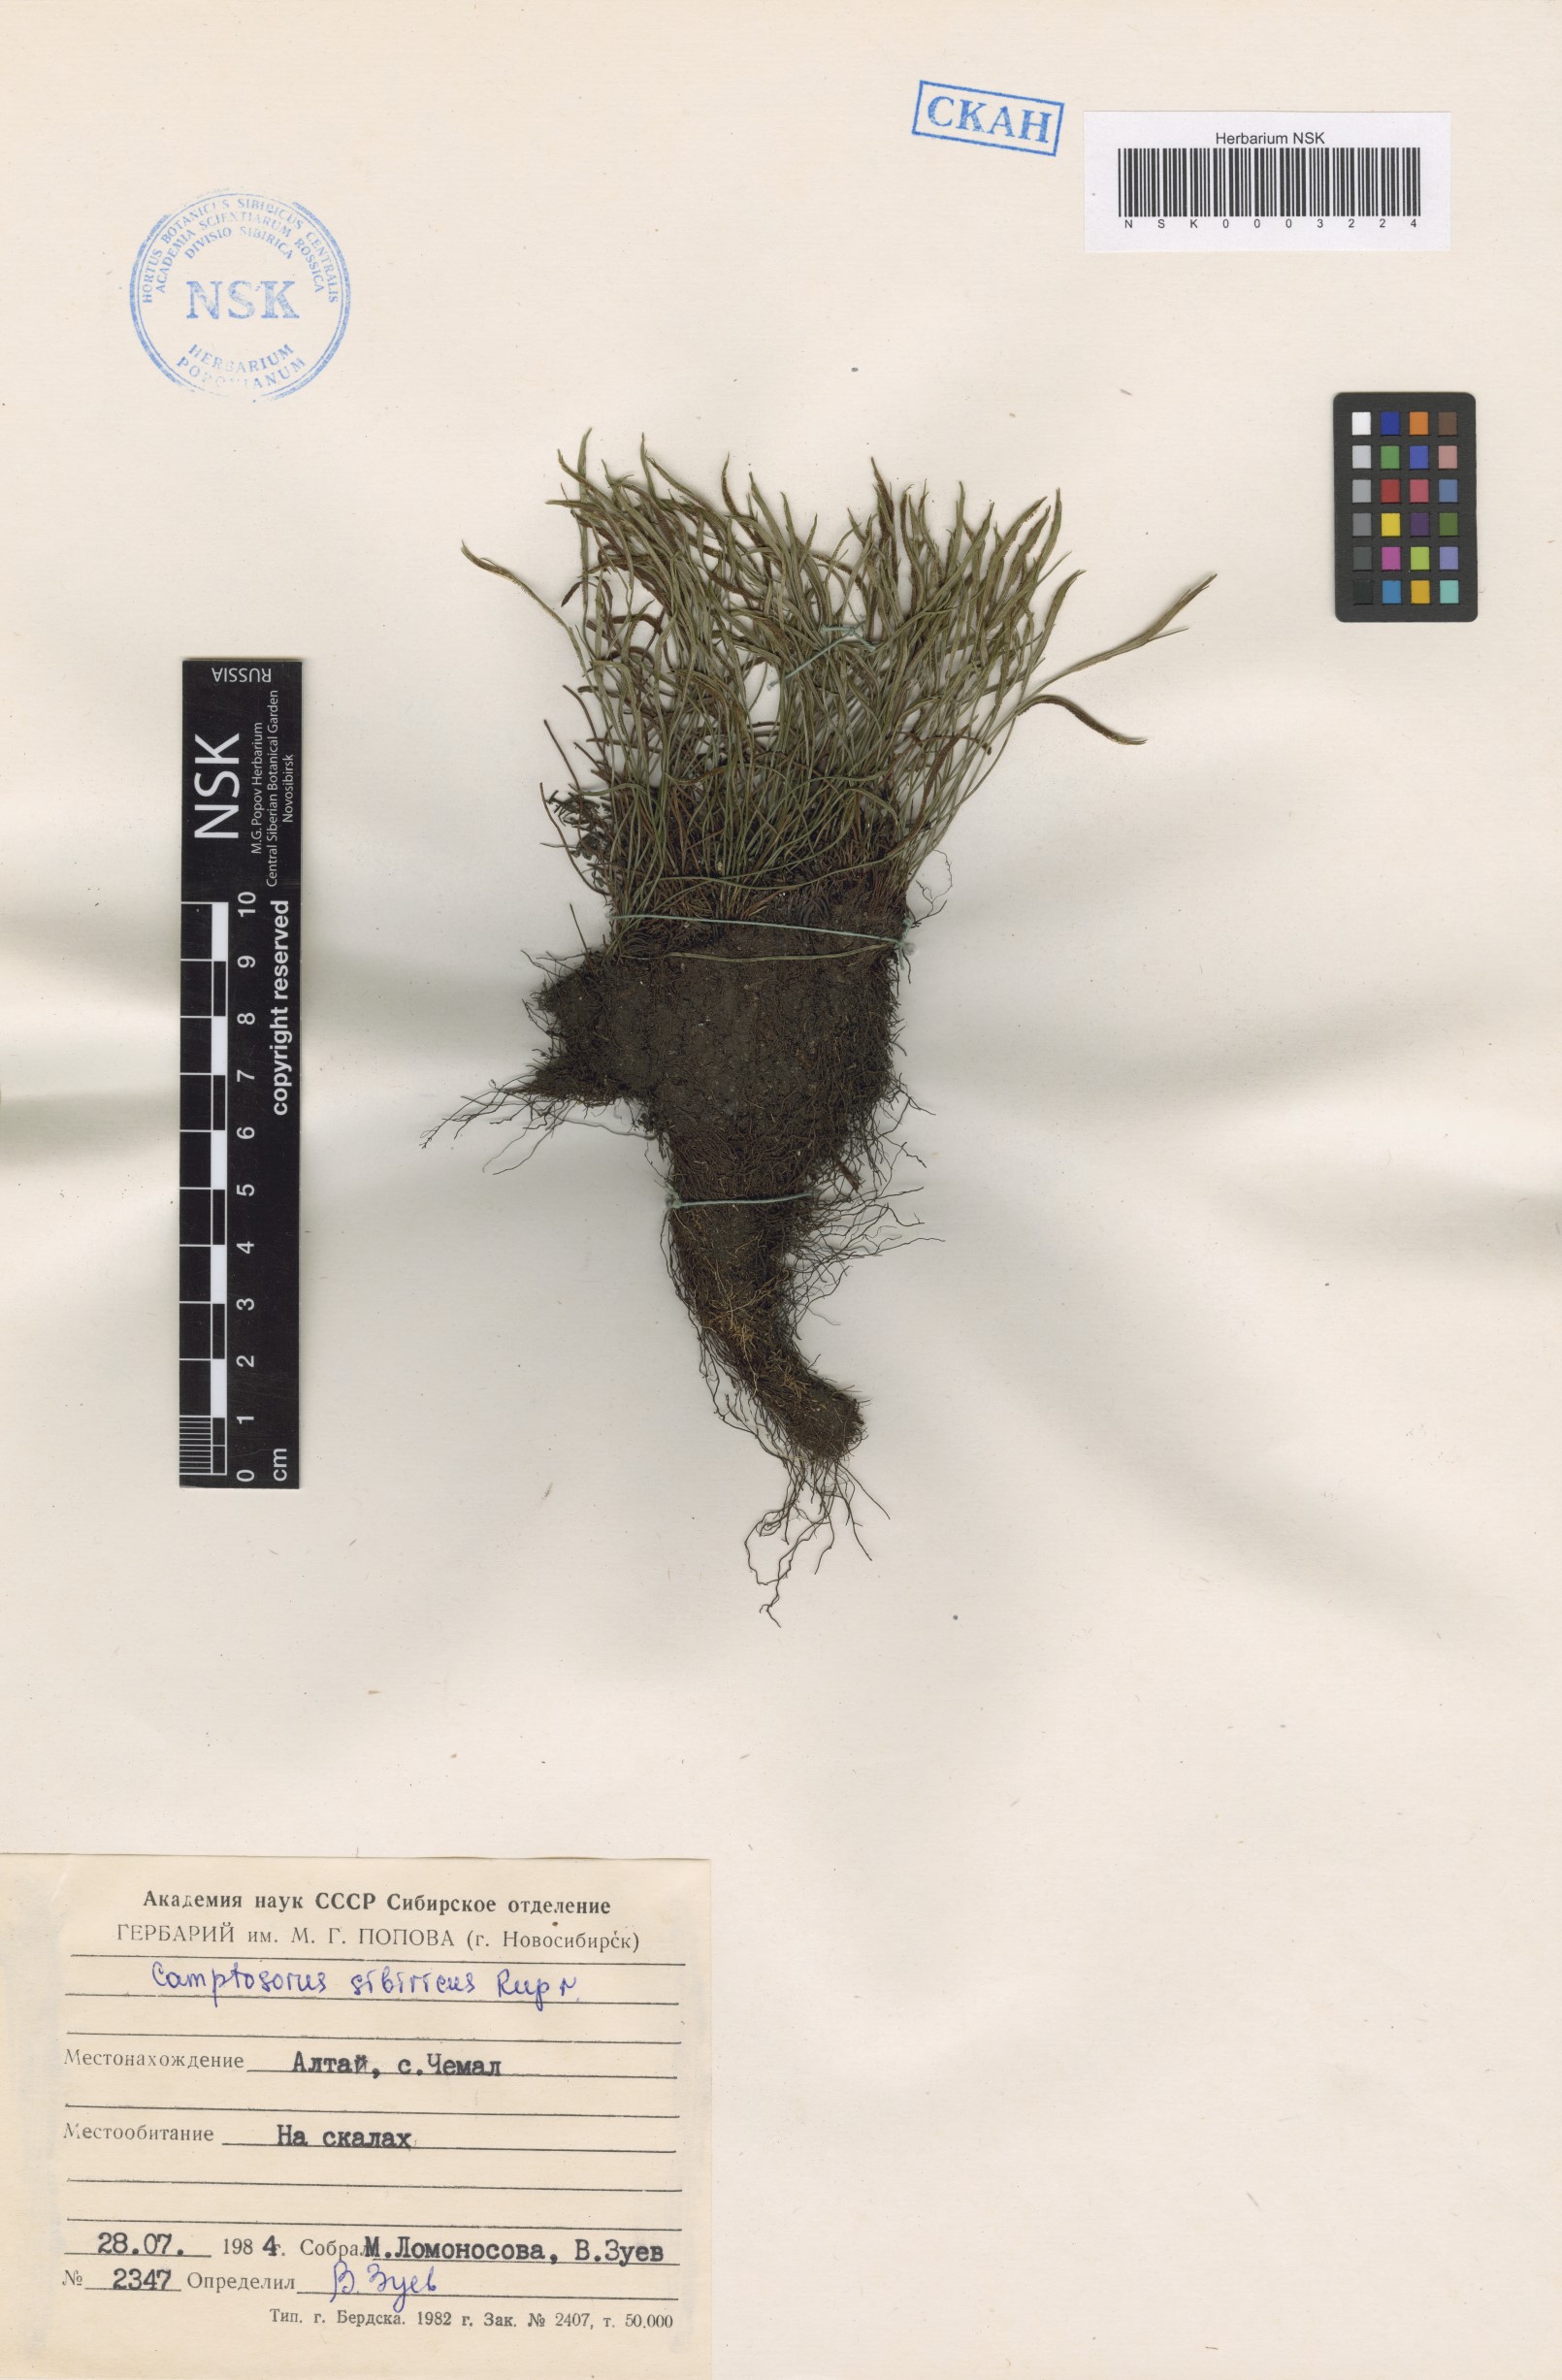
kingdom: Plantae
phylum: Tracheophyta
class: Polypodiopsida
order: Polypodiales
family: Aspleniaceae
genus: Asplenium
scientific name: Asplenium ruprechtii
